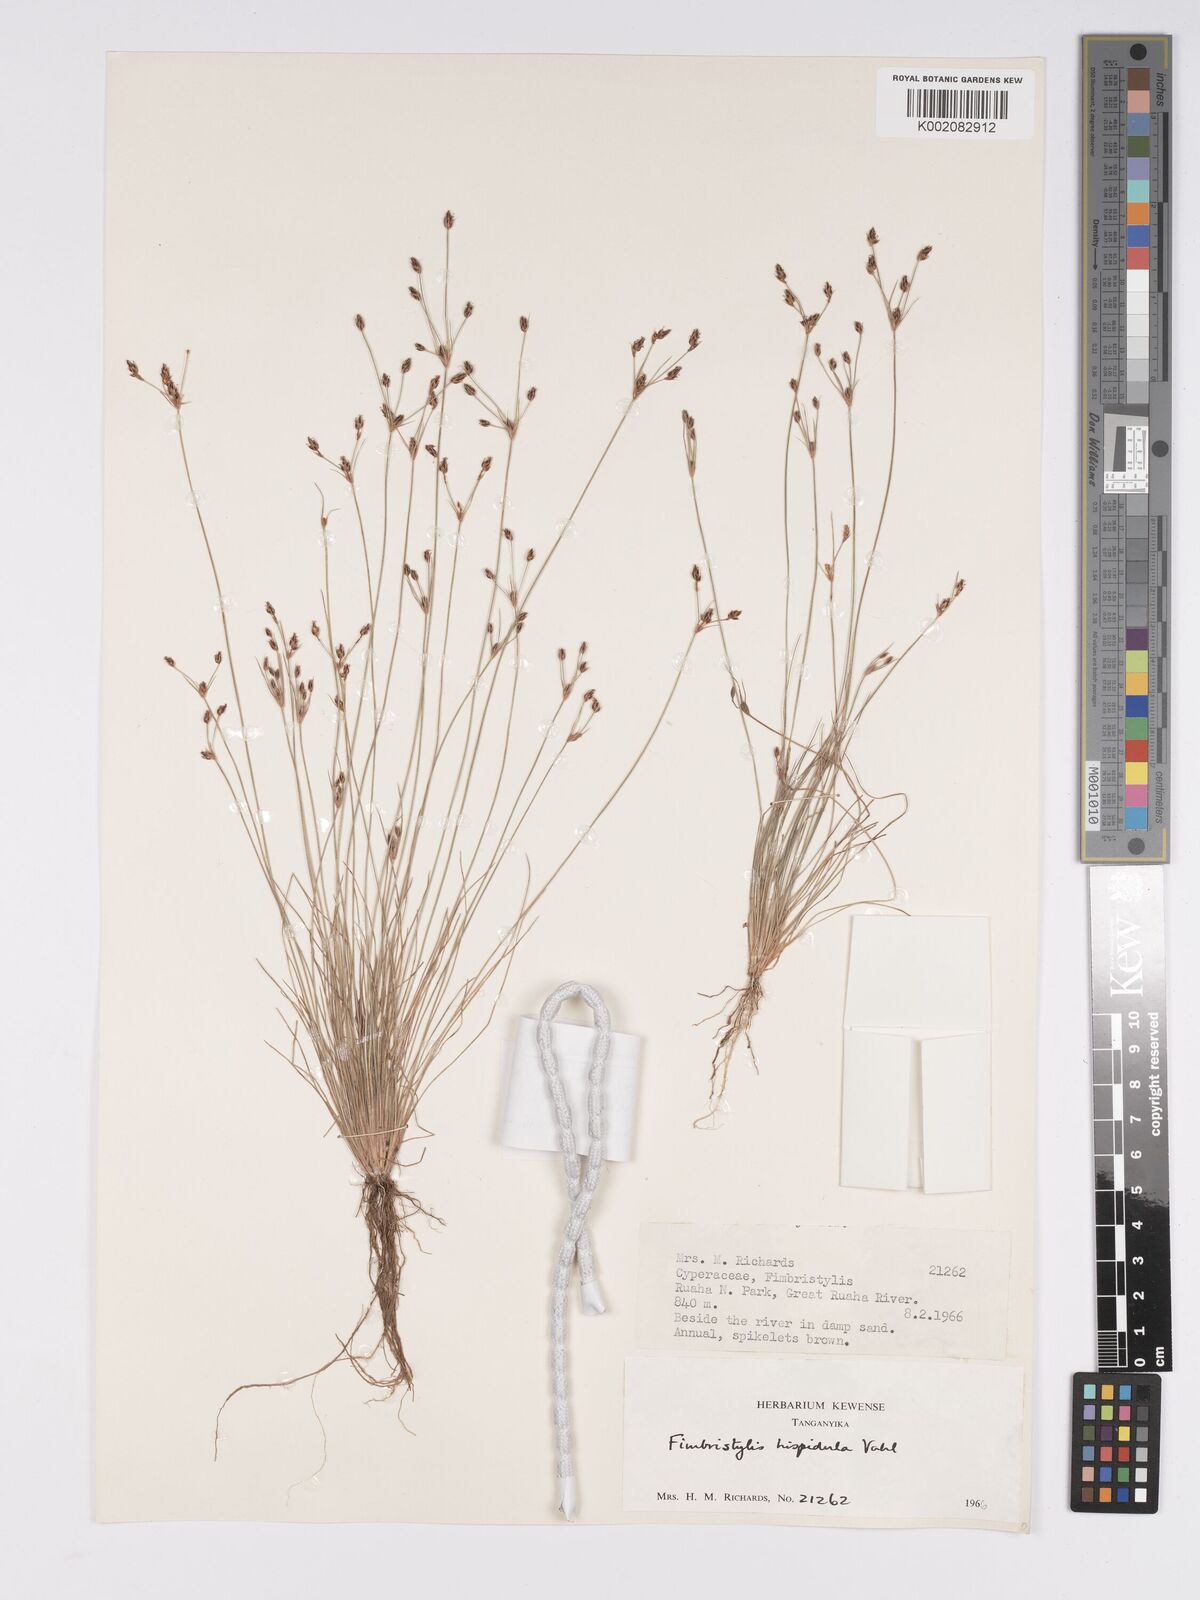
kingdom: Plantae
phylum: Tracheophyta
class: Liliopsida
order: Poales
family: Cyperaceae
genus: Bulbostylis
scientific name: Bulbostylis hispidula
